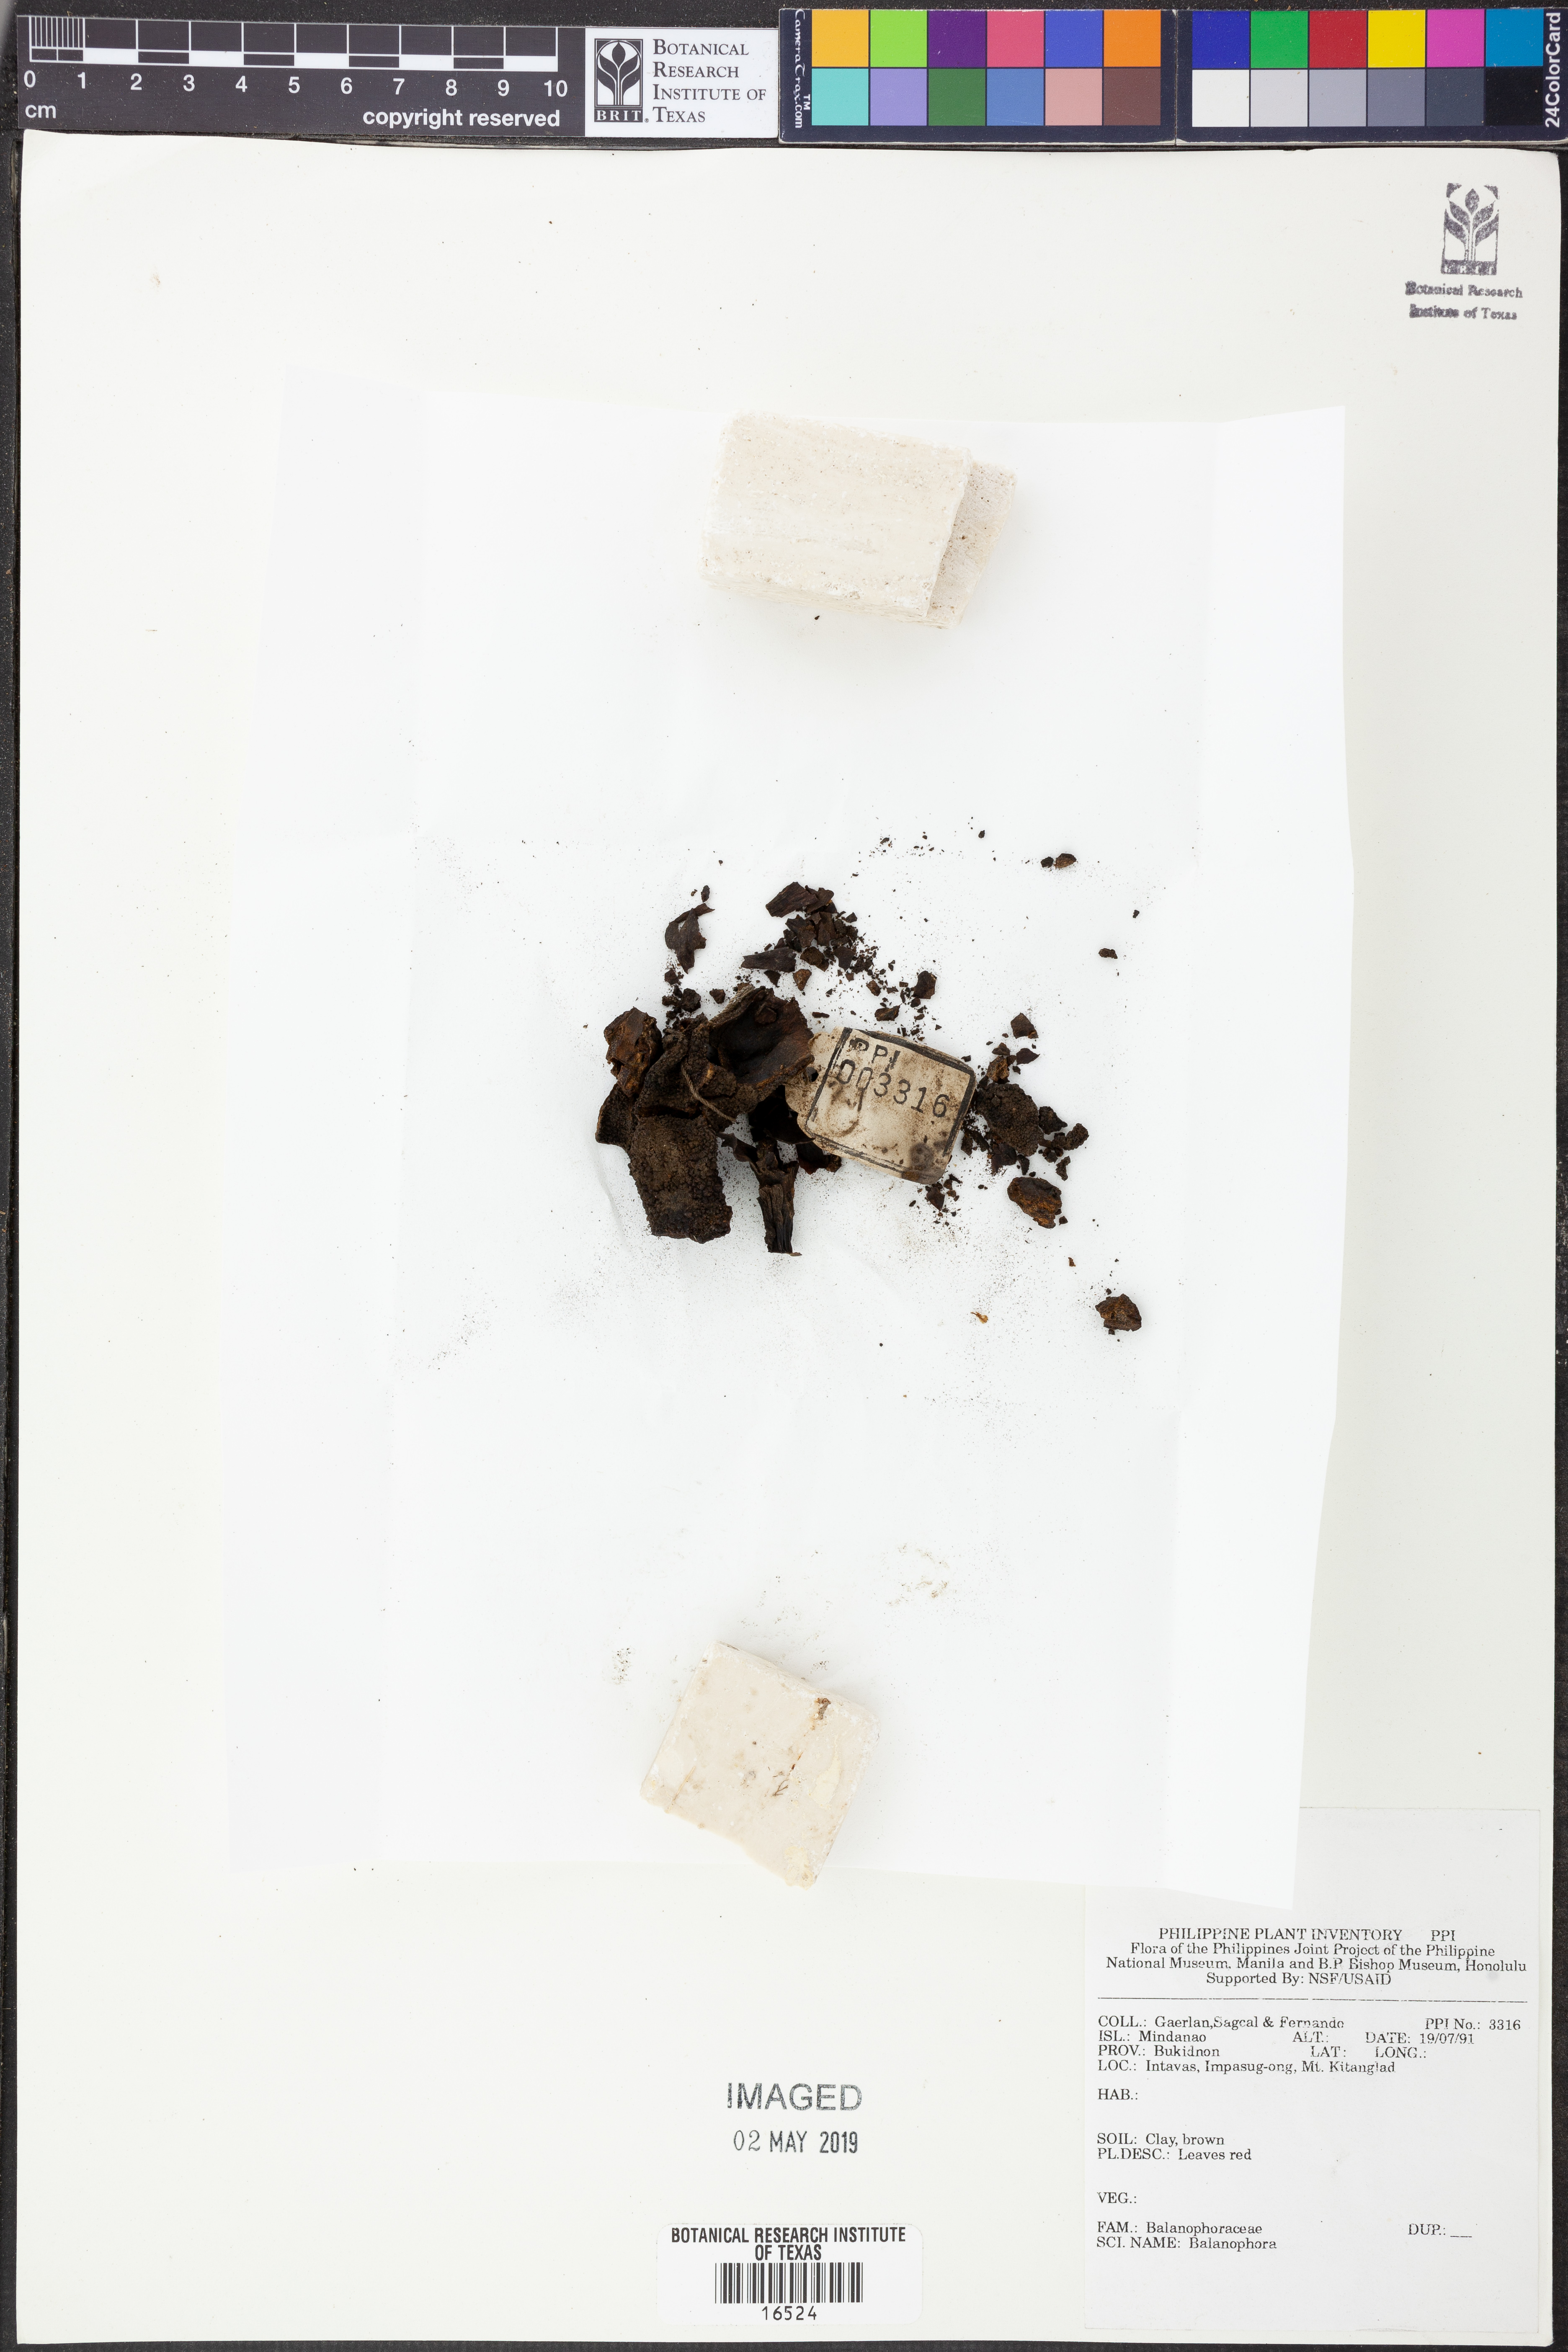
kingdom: Plantae
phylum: Tracheophyta
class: Magnoliopsida
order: Santalales
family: Balanophoraceae
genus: Balanophora
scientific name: Balanophora
